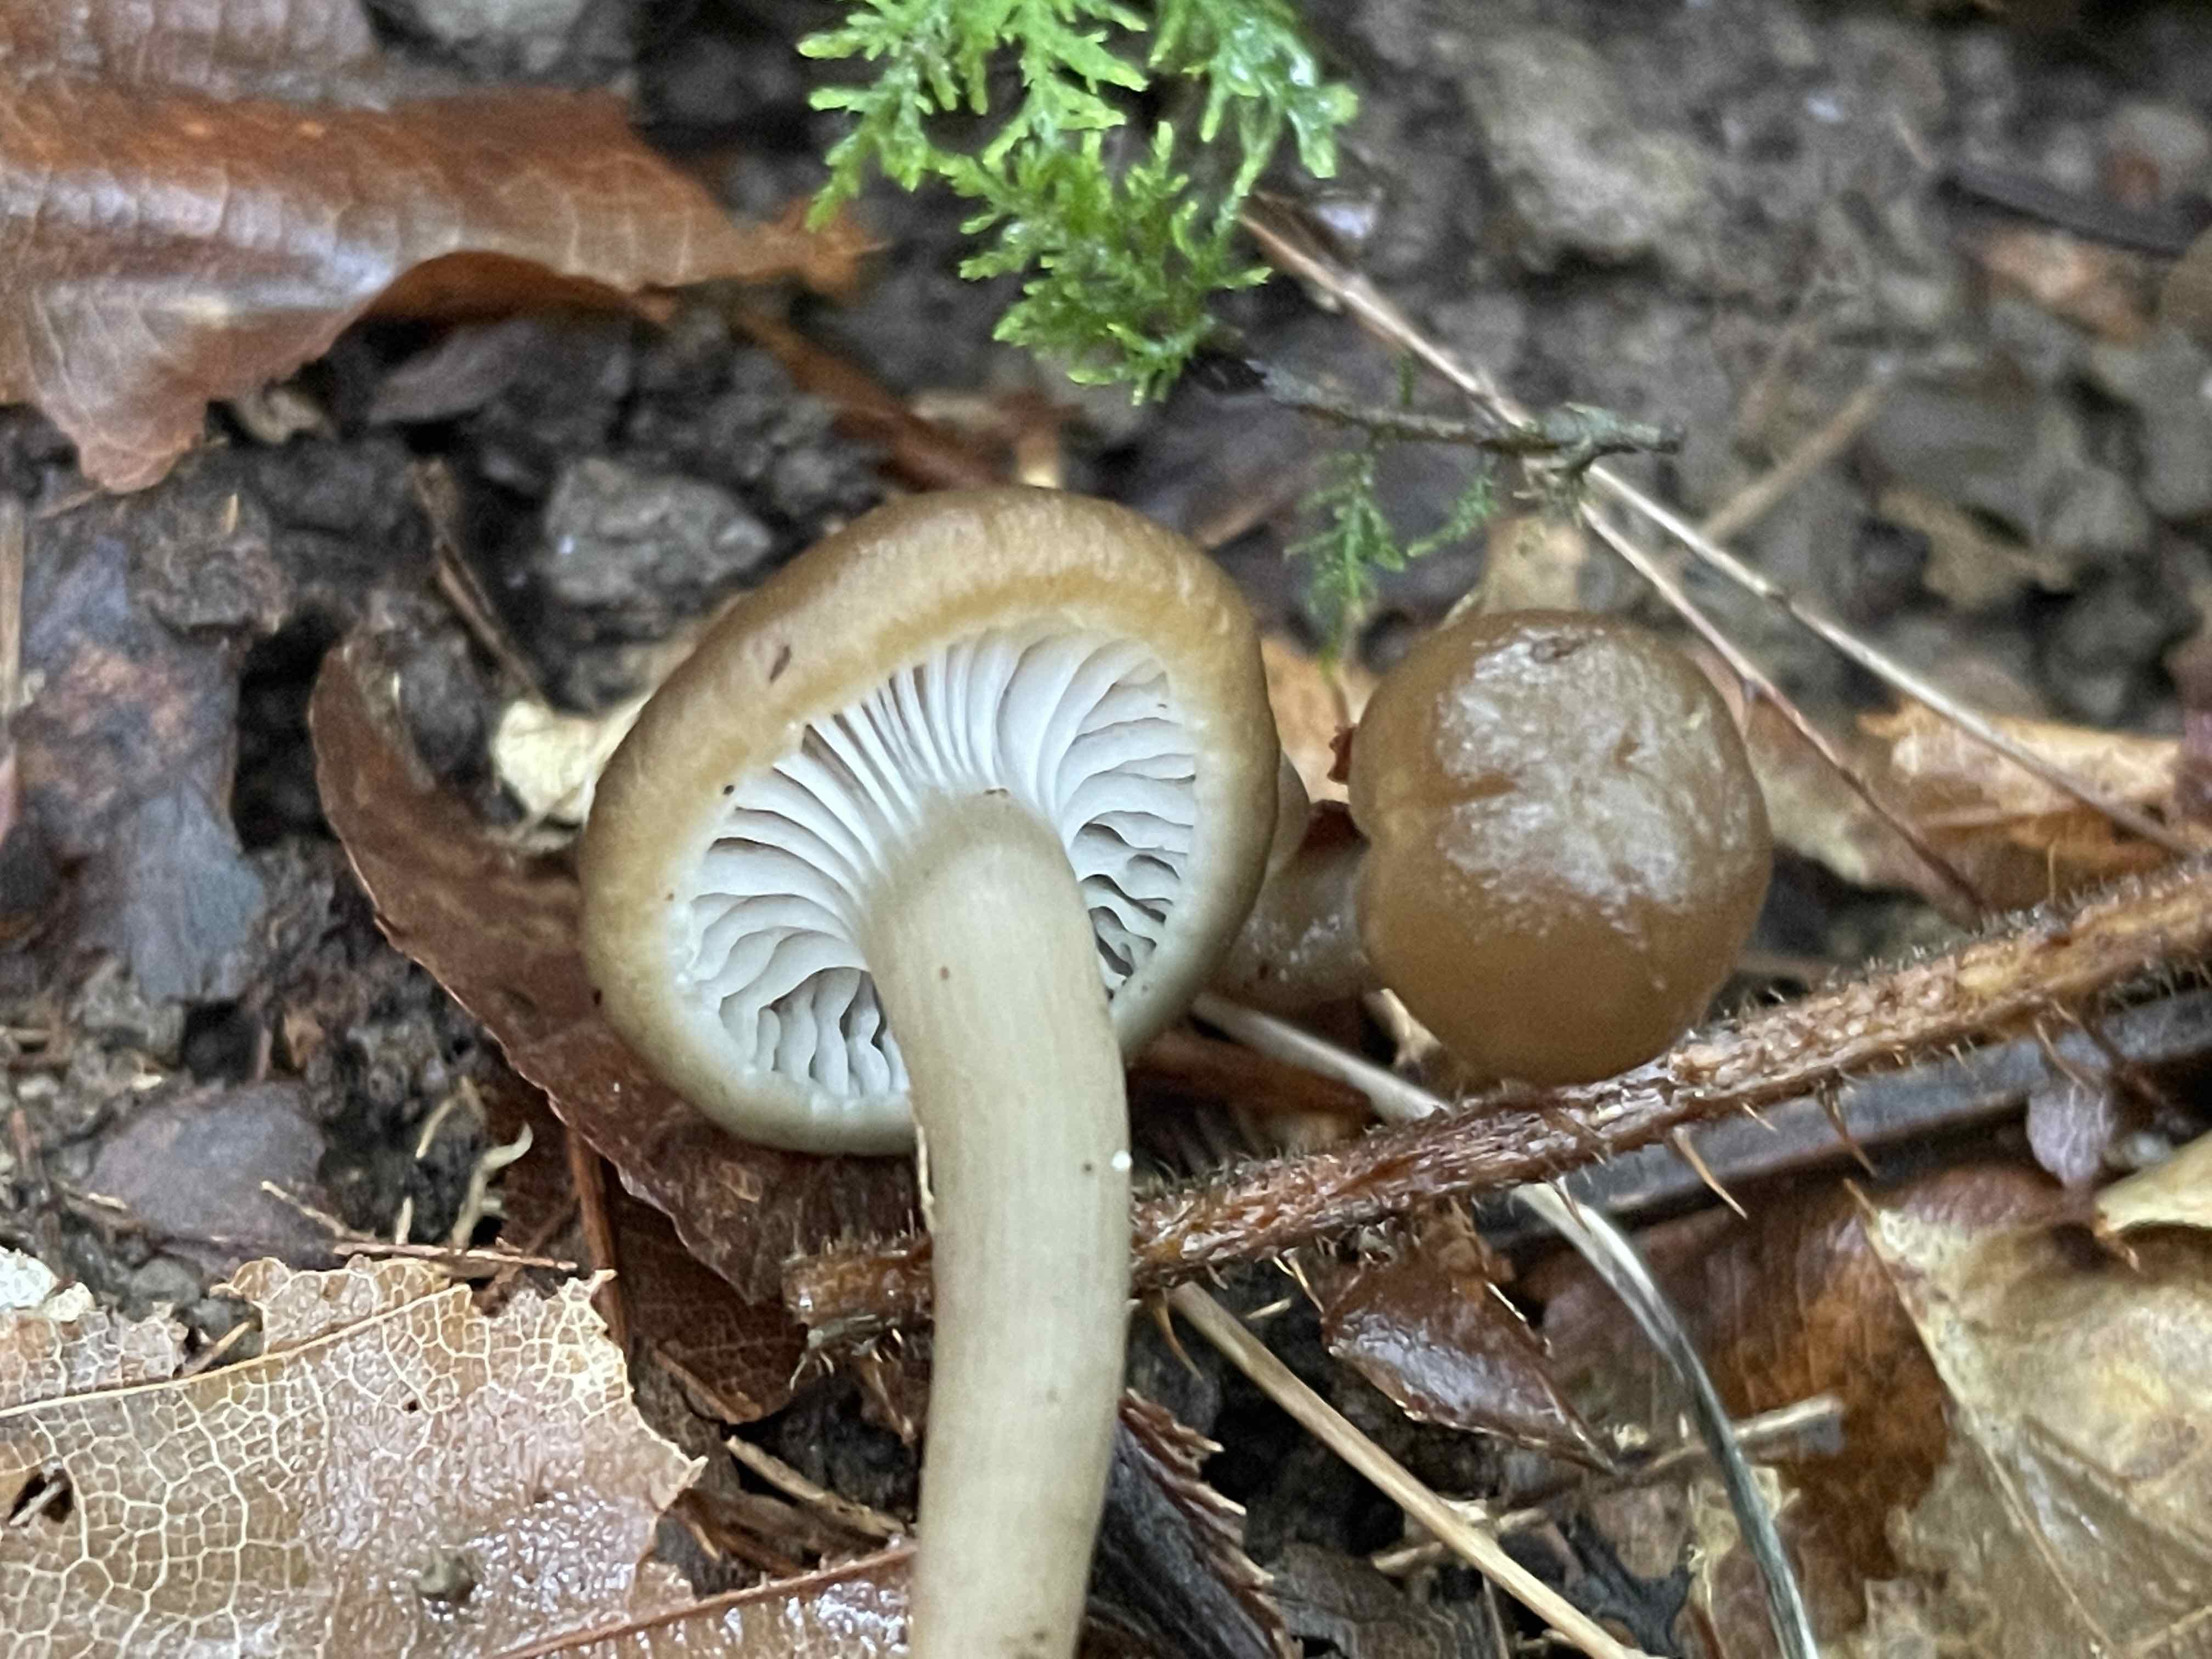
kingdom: Fungi
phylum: Basidiomycota
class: Agaricomycetes
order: Agaricales
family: Clavariaceae
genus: Camarophyllopsis
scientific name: Camarophyllopsis atrovelutina
